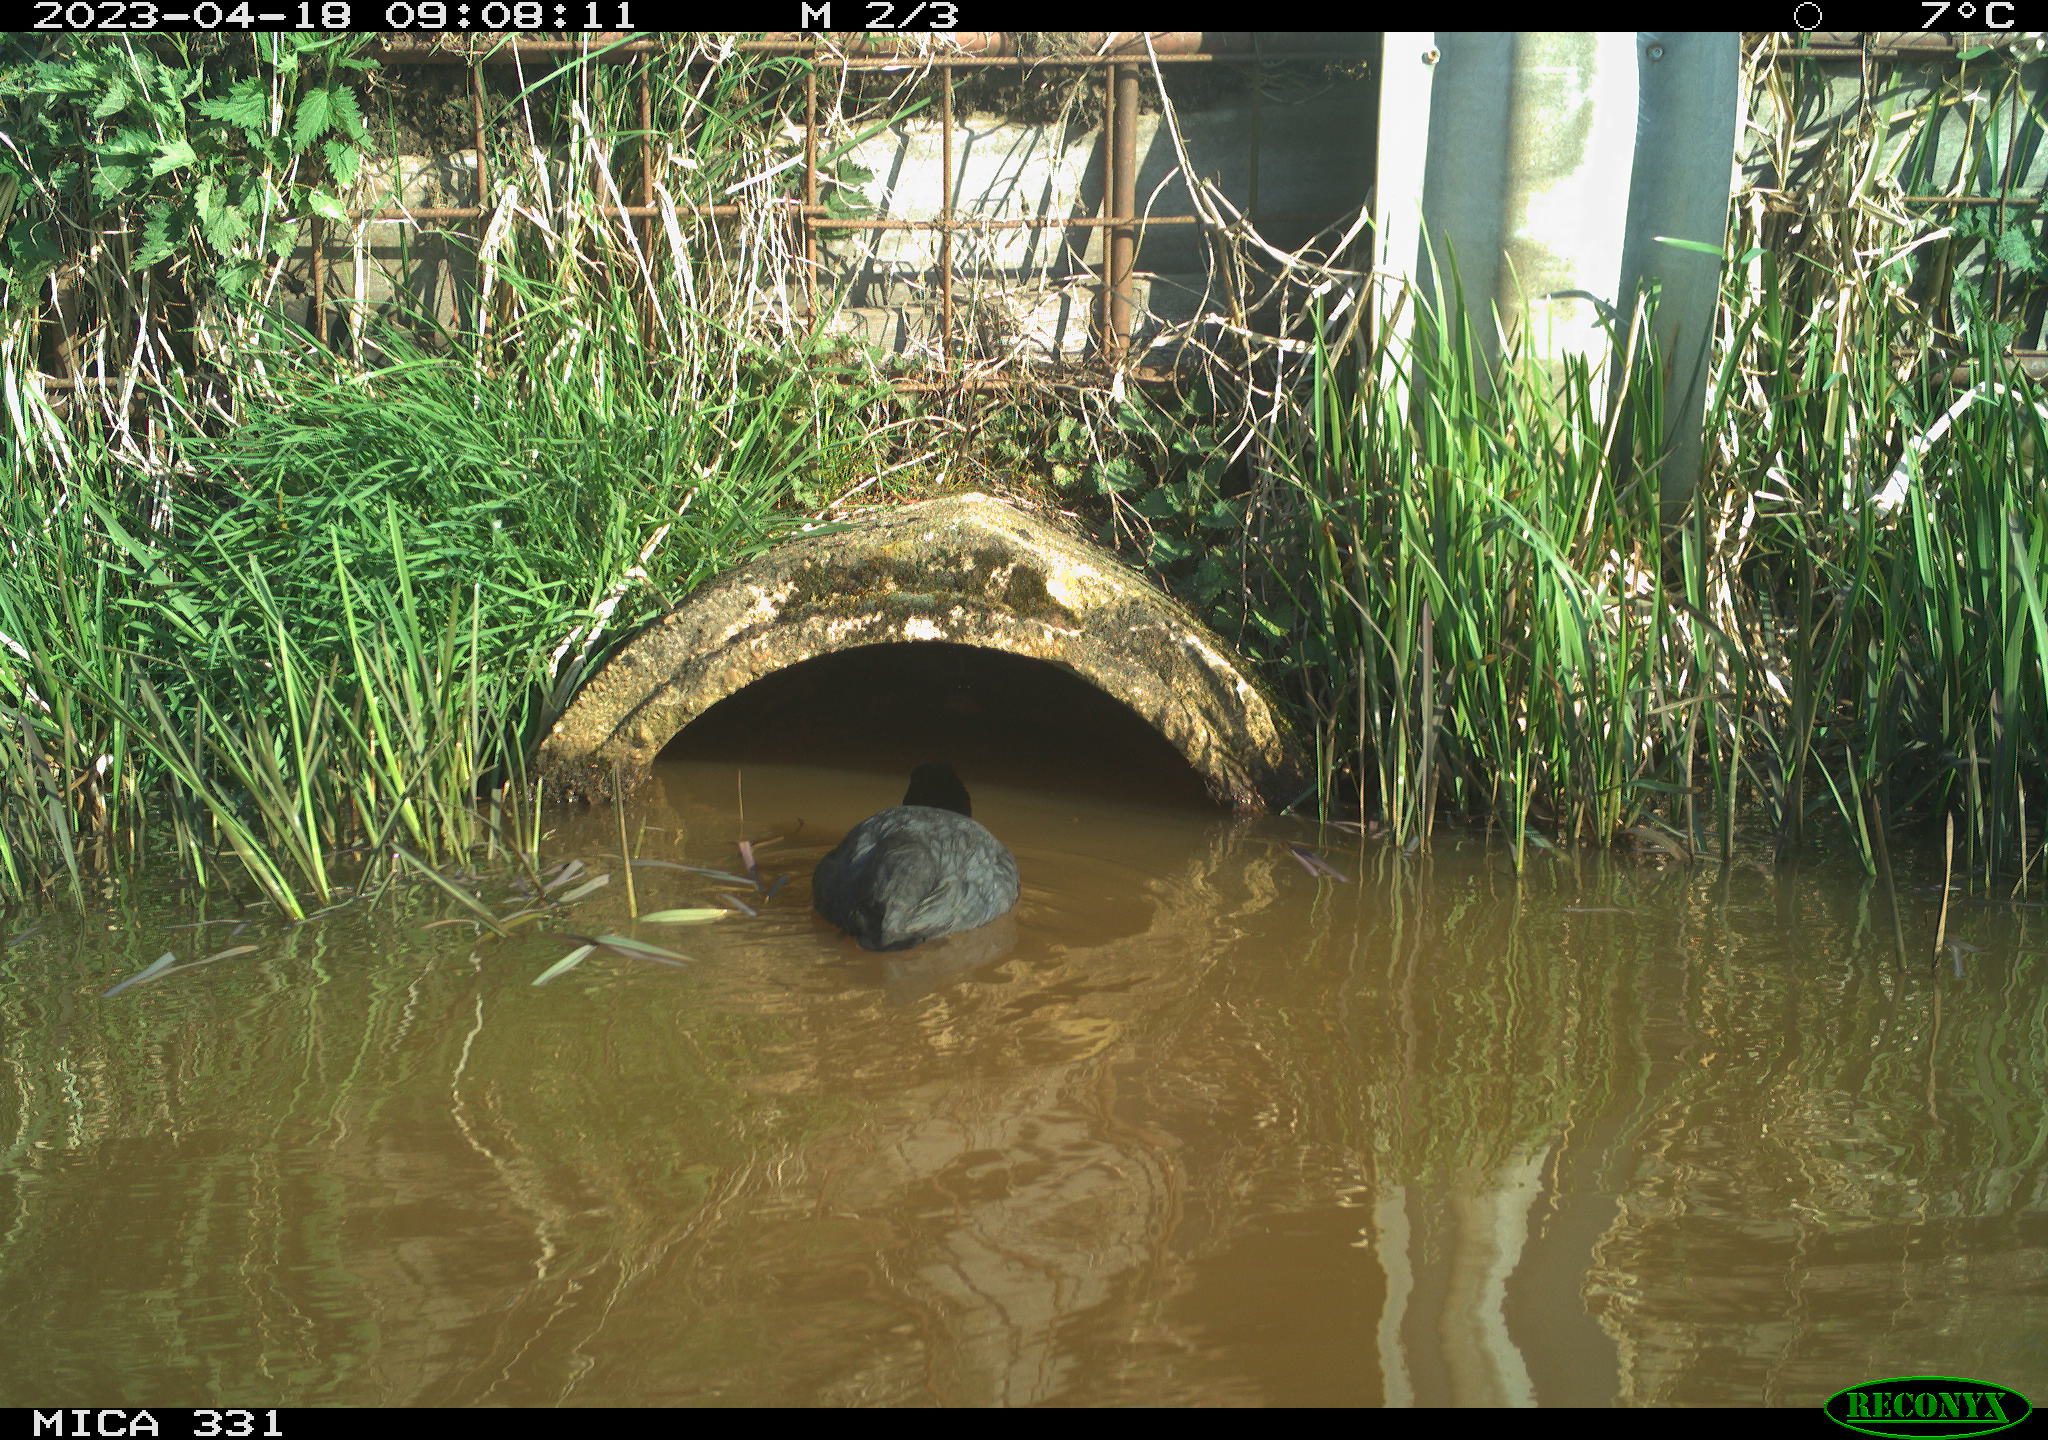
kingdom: Animalia
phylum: Chordata
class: Aves
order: Gruiformes
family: Rallidae
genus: Fulica
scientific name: Fulica atra
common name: Eurasian coot
